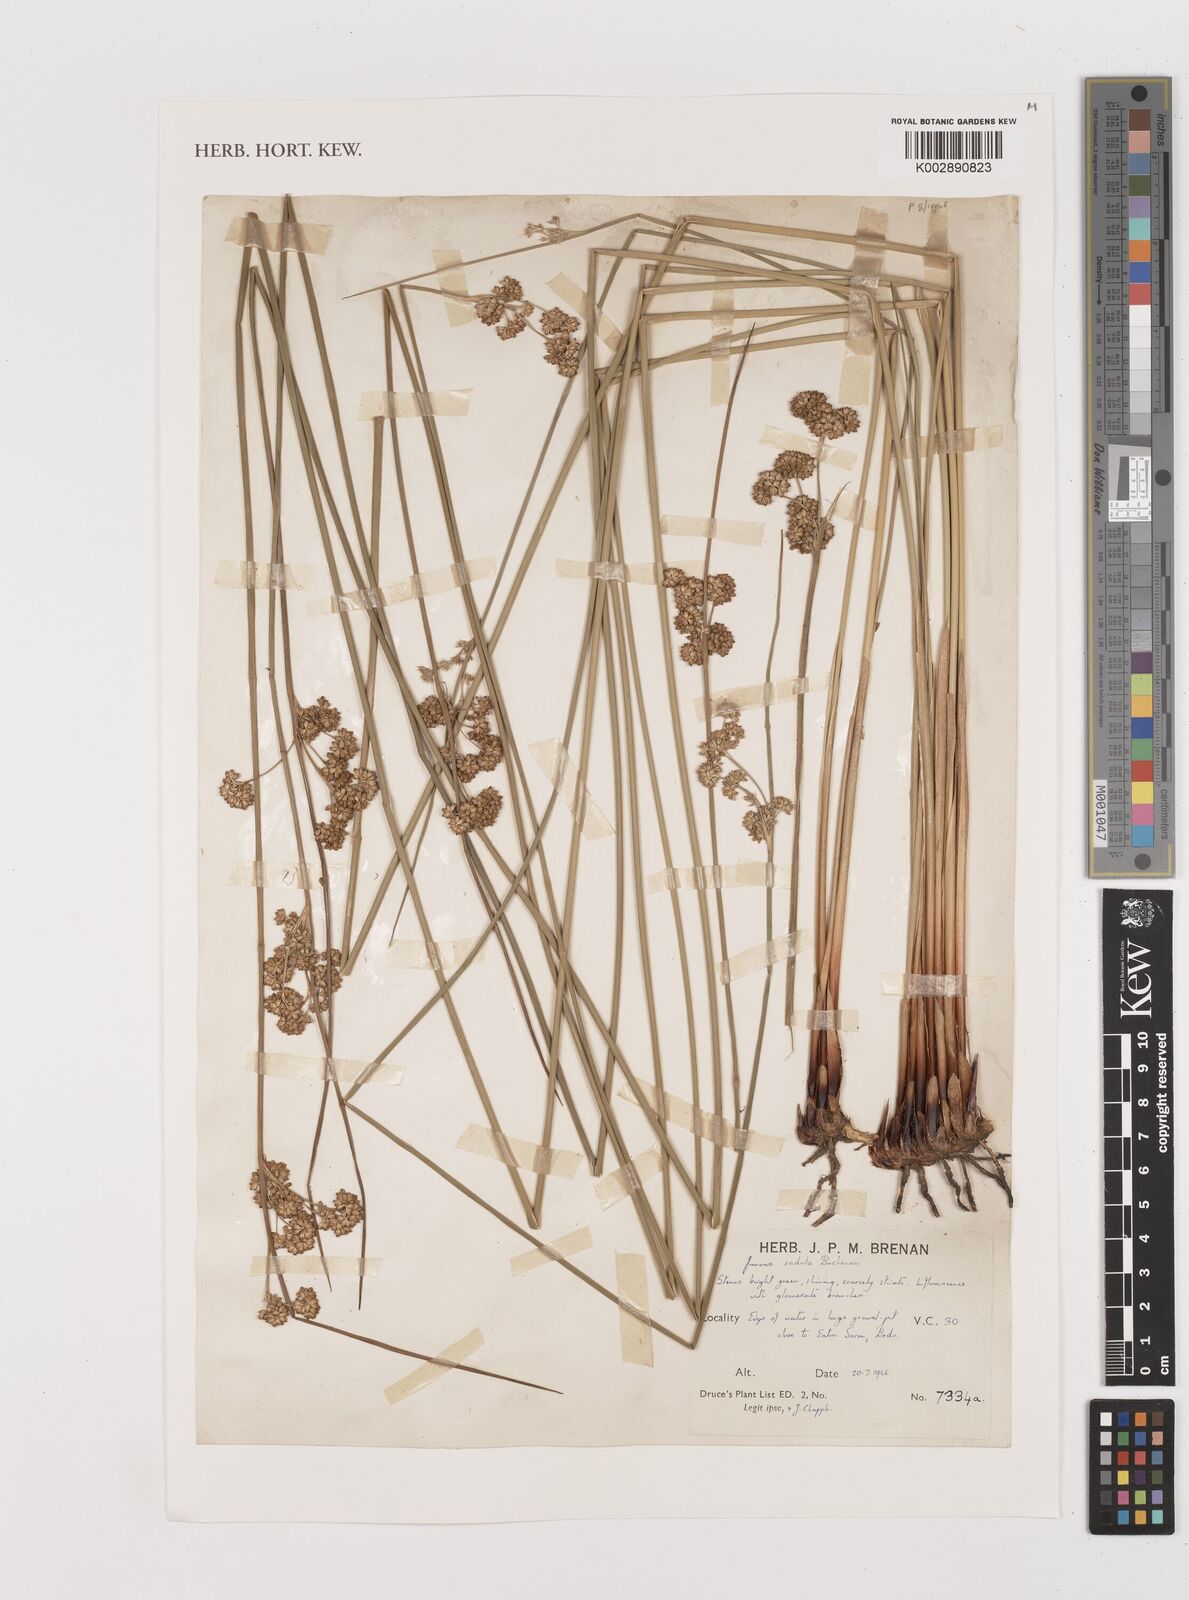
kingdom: Plantae
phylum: Tracheophyta
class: Liliopsida
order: Poales
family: Juncaceae
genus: Juncus
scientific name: Juncus radula
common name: Hoary rush
